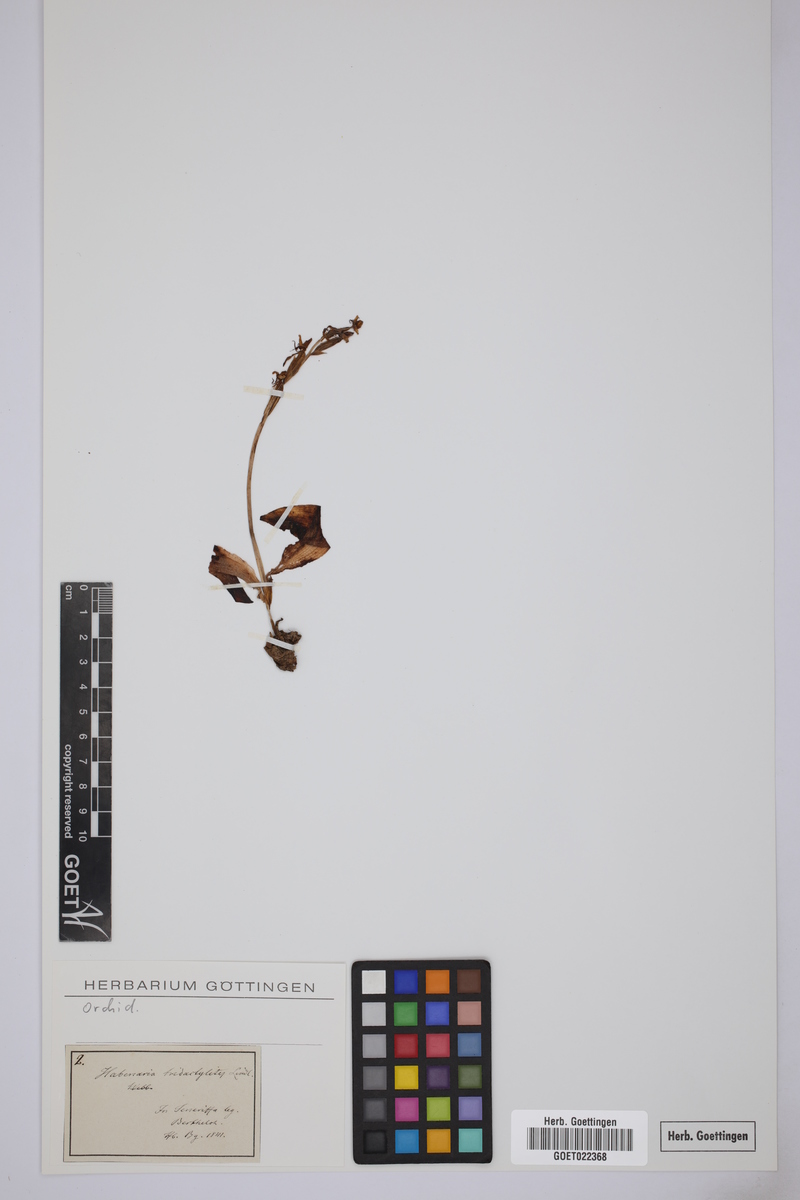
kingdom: Plantae
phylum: Tracheophyta
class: Liliopsida
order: Asparagales
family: Orchidaceae
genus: Habenaria
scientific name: Habenaria tridactylites
